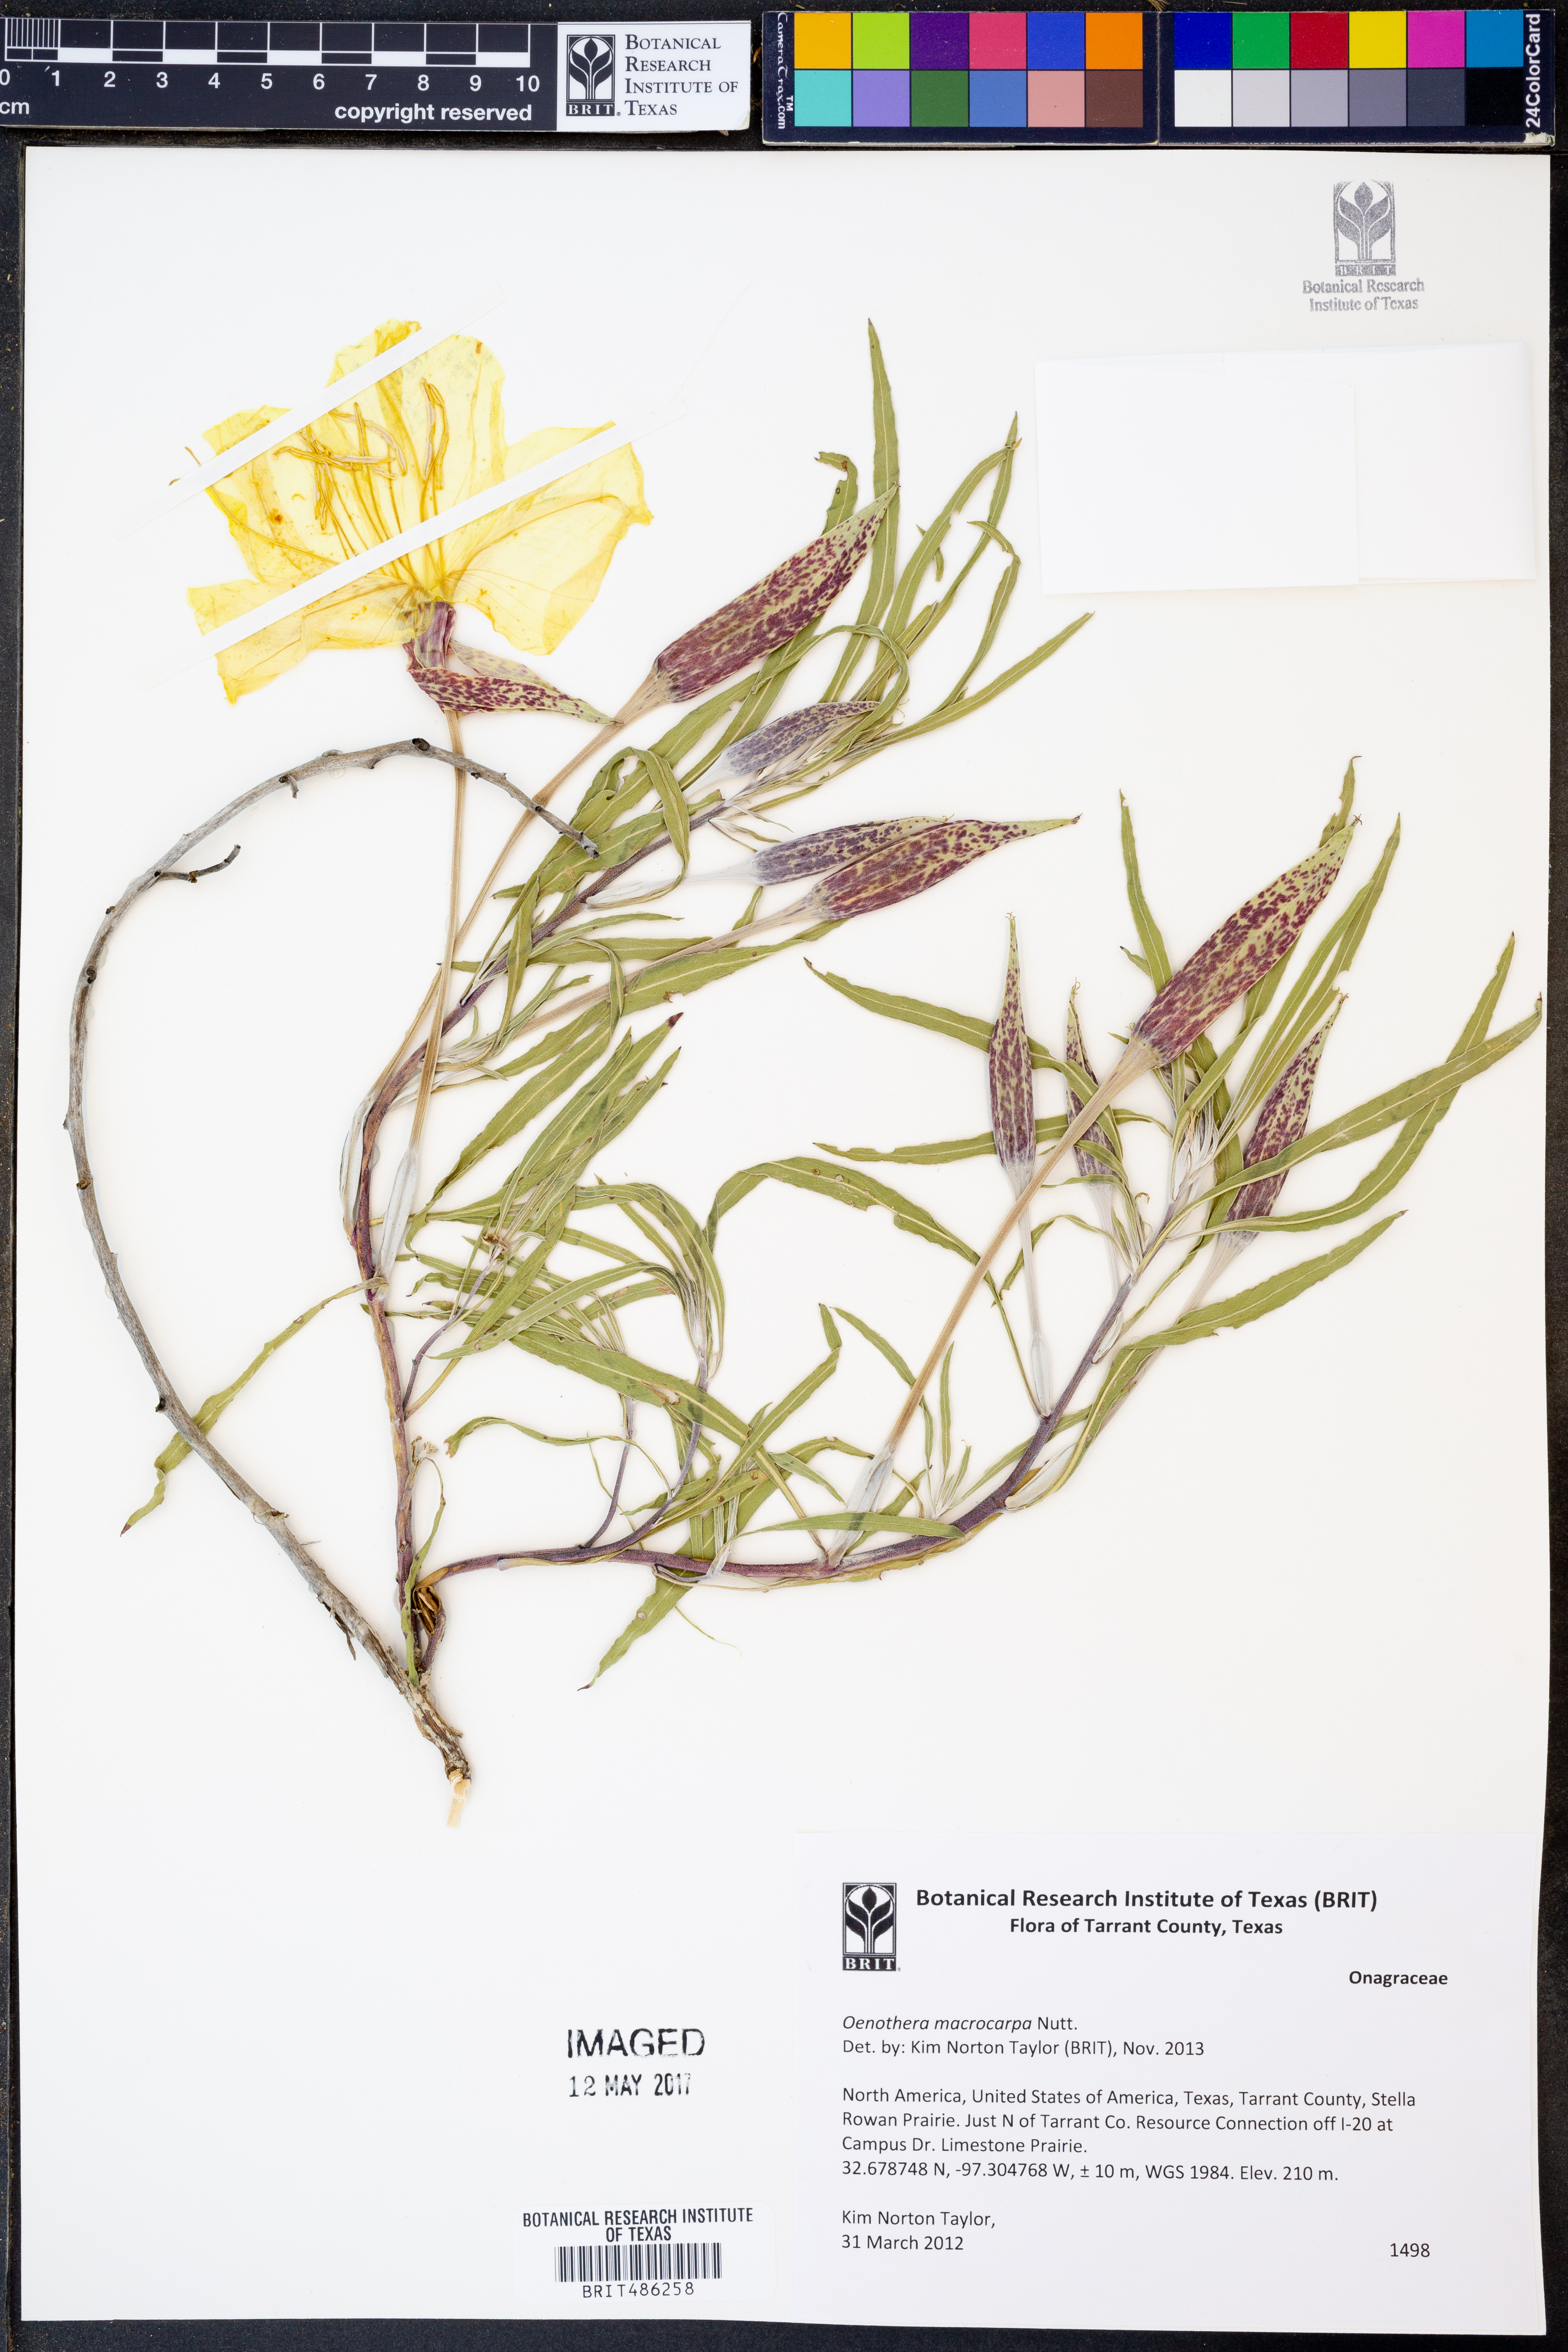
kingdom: Plantae
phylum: Tracheophyta
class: Magnoliopsida
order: Myrtales
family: Onagraceae
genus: Oenothera
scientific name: Oenothera macrocarpa
